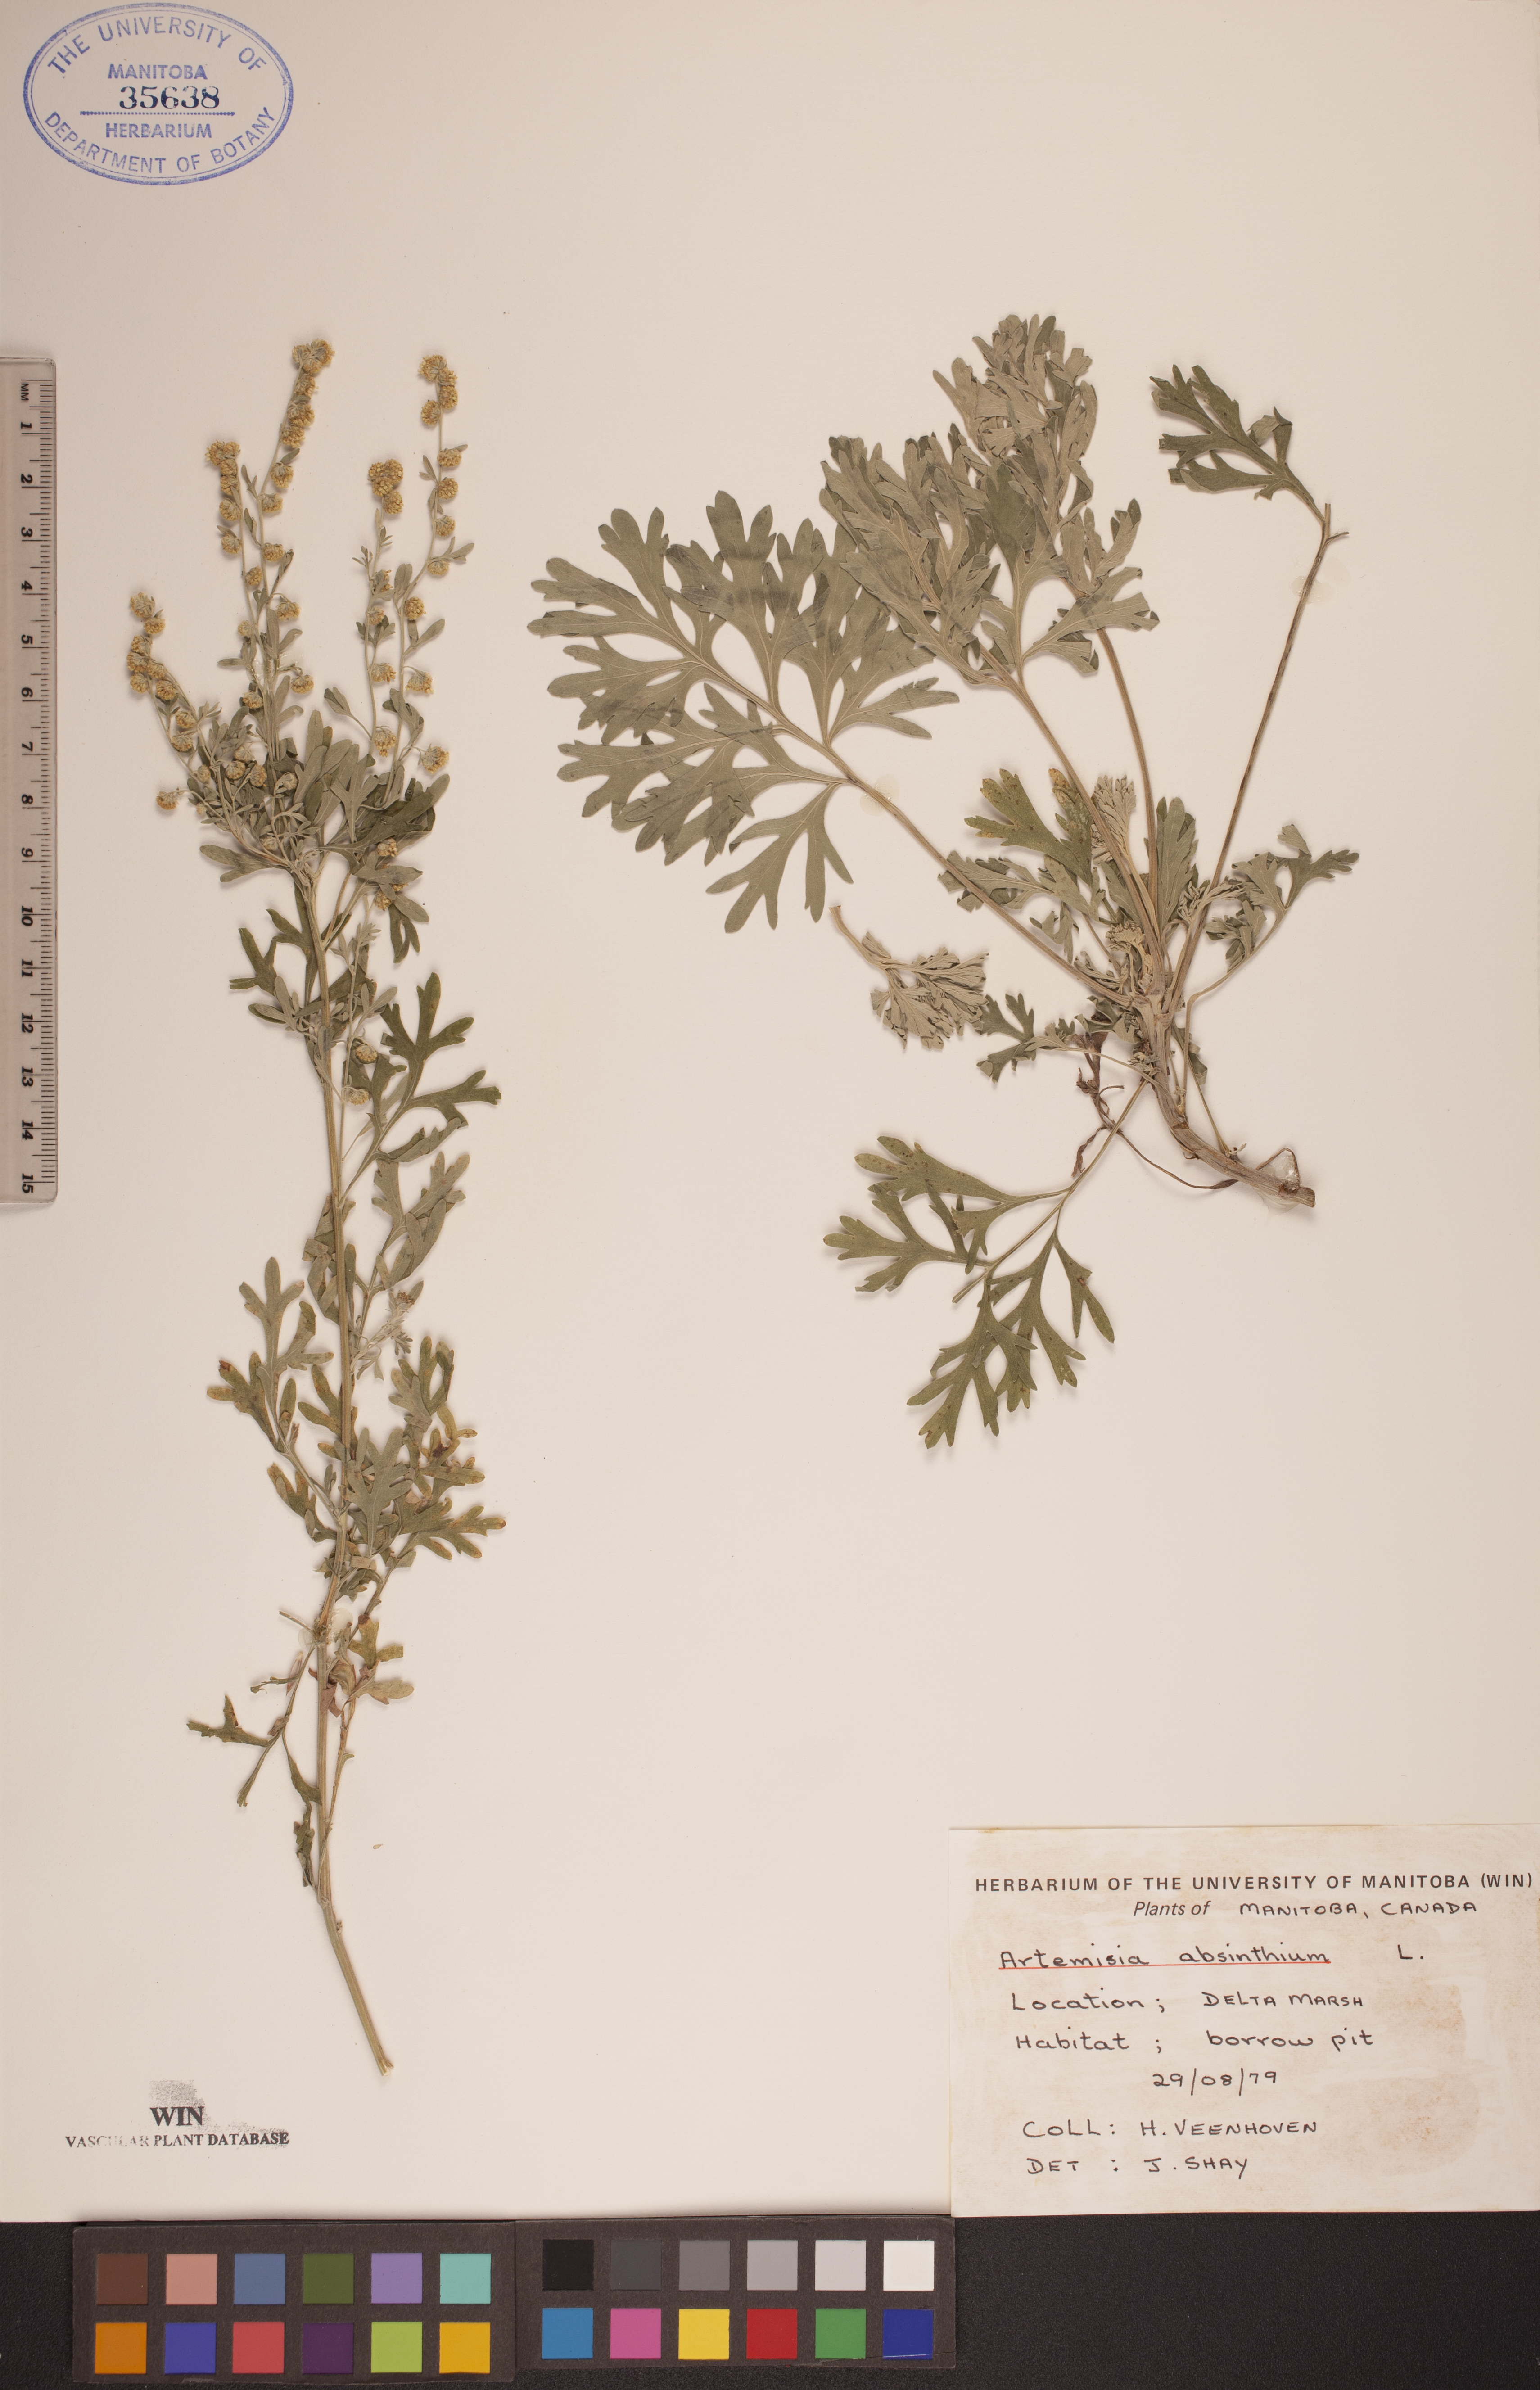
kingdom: Plantae
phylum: Tracheophyta
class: Magnoliopsida
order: Asterales
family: Asteraceae
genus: Artemisia
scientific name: Artemisia absinthium
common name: Wormwood
